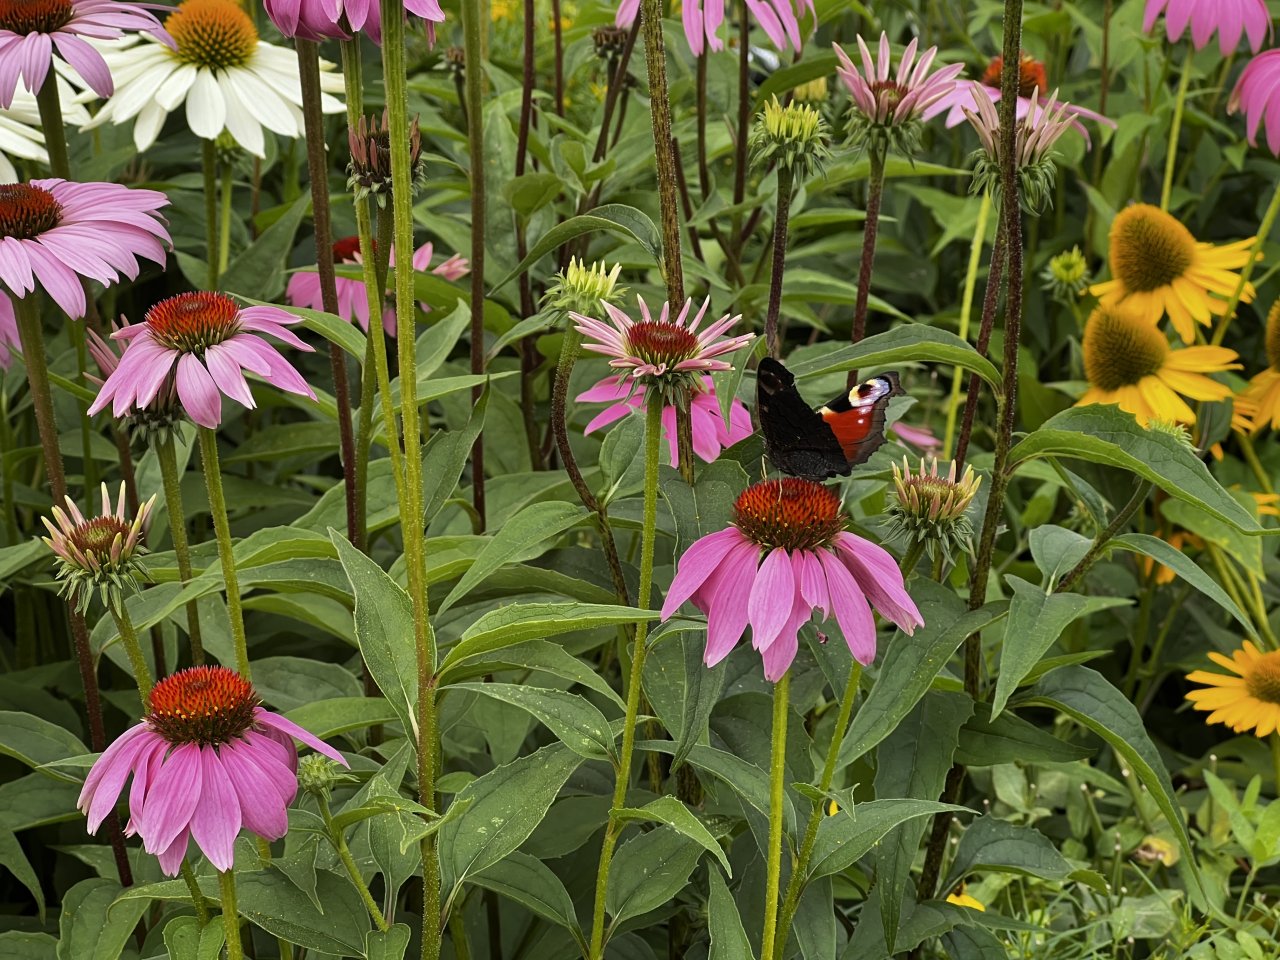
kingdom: Animalia
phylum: Arthropoda
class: Insecta
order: Lepidoptera
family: Nymphalidae
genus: Aglais
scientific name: Aglais io
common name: European Peacock
